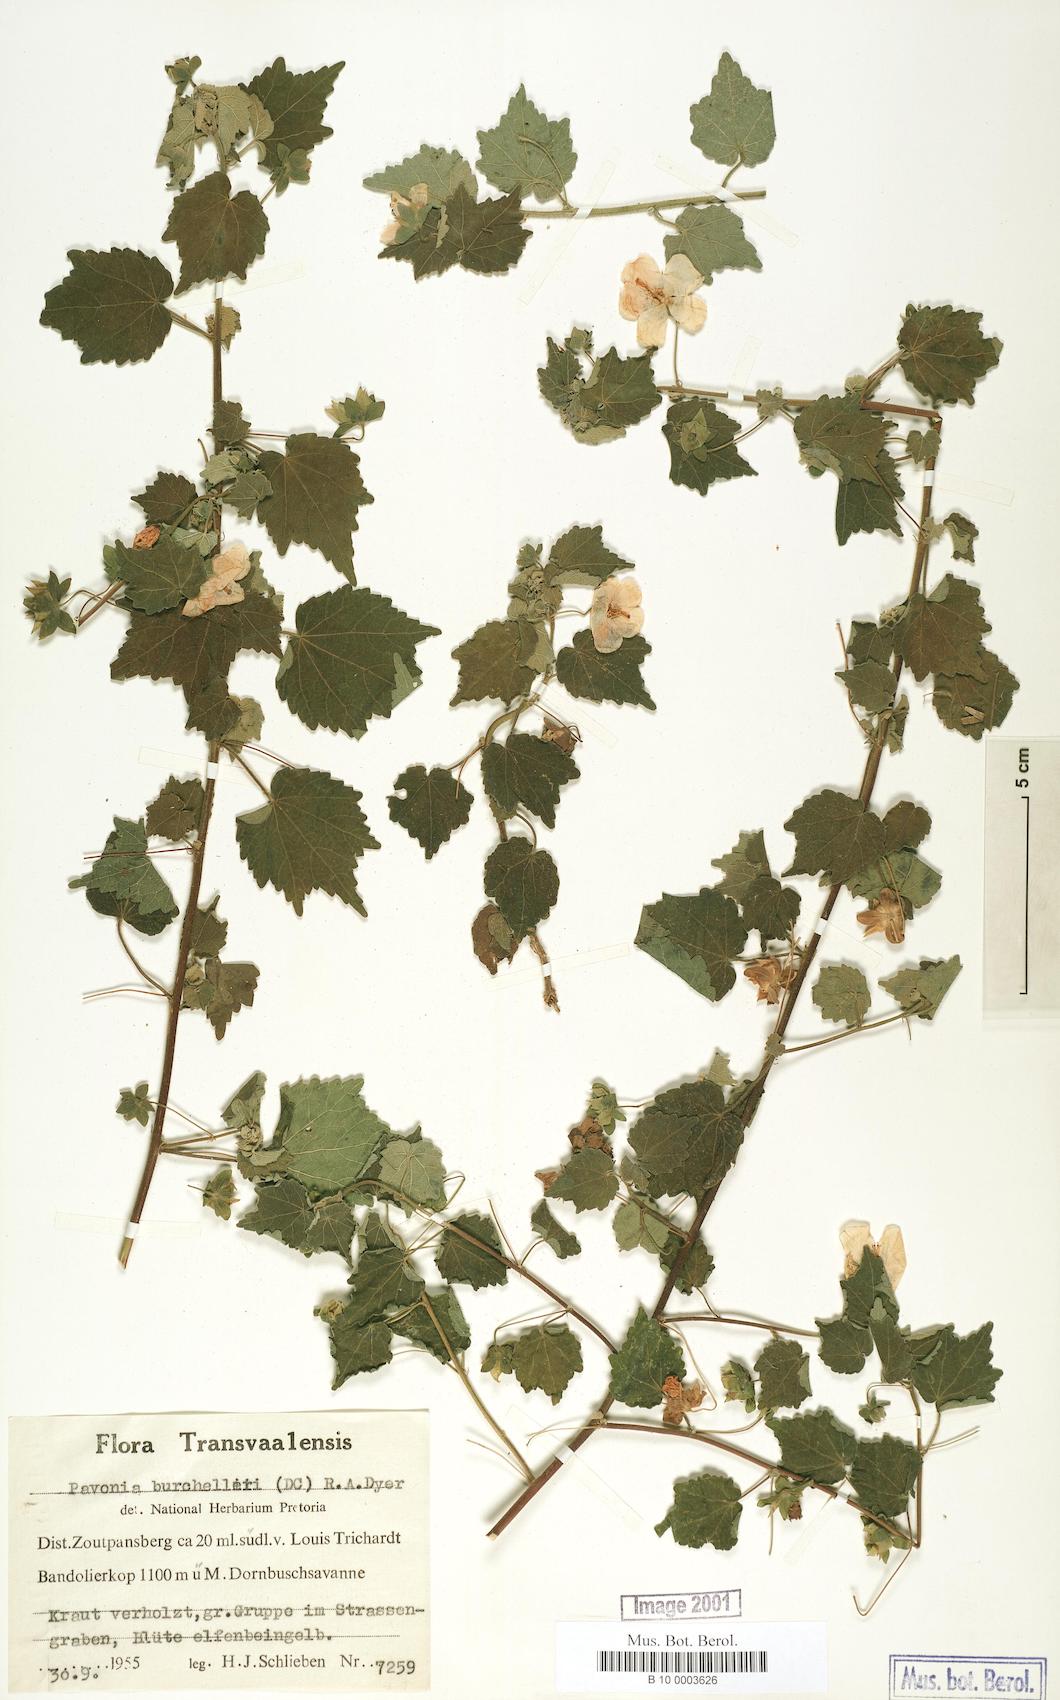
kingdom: Plantae
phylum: Tracheophyta
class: Magnoliopsida
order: Malvales
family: Malvaceae
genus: Pavonia
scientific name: Pavonia burchellii
